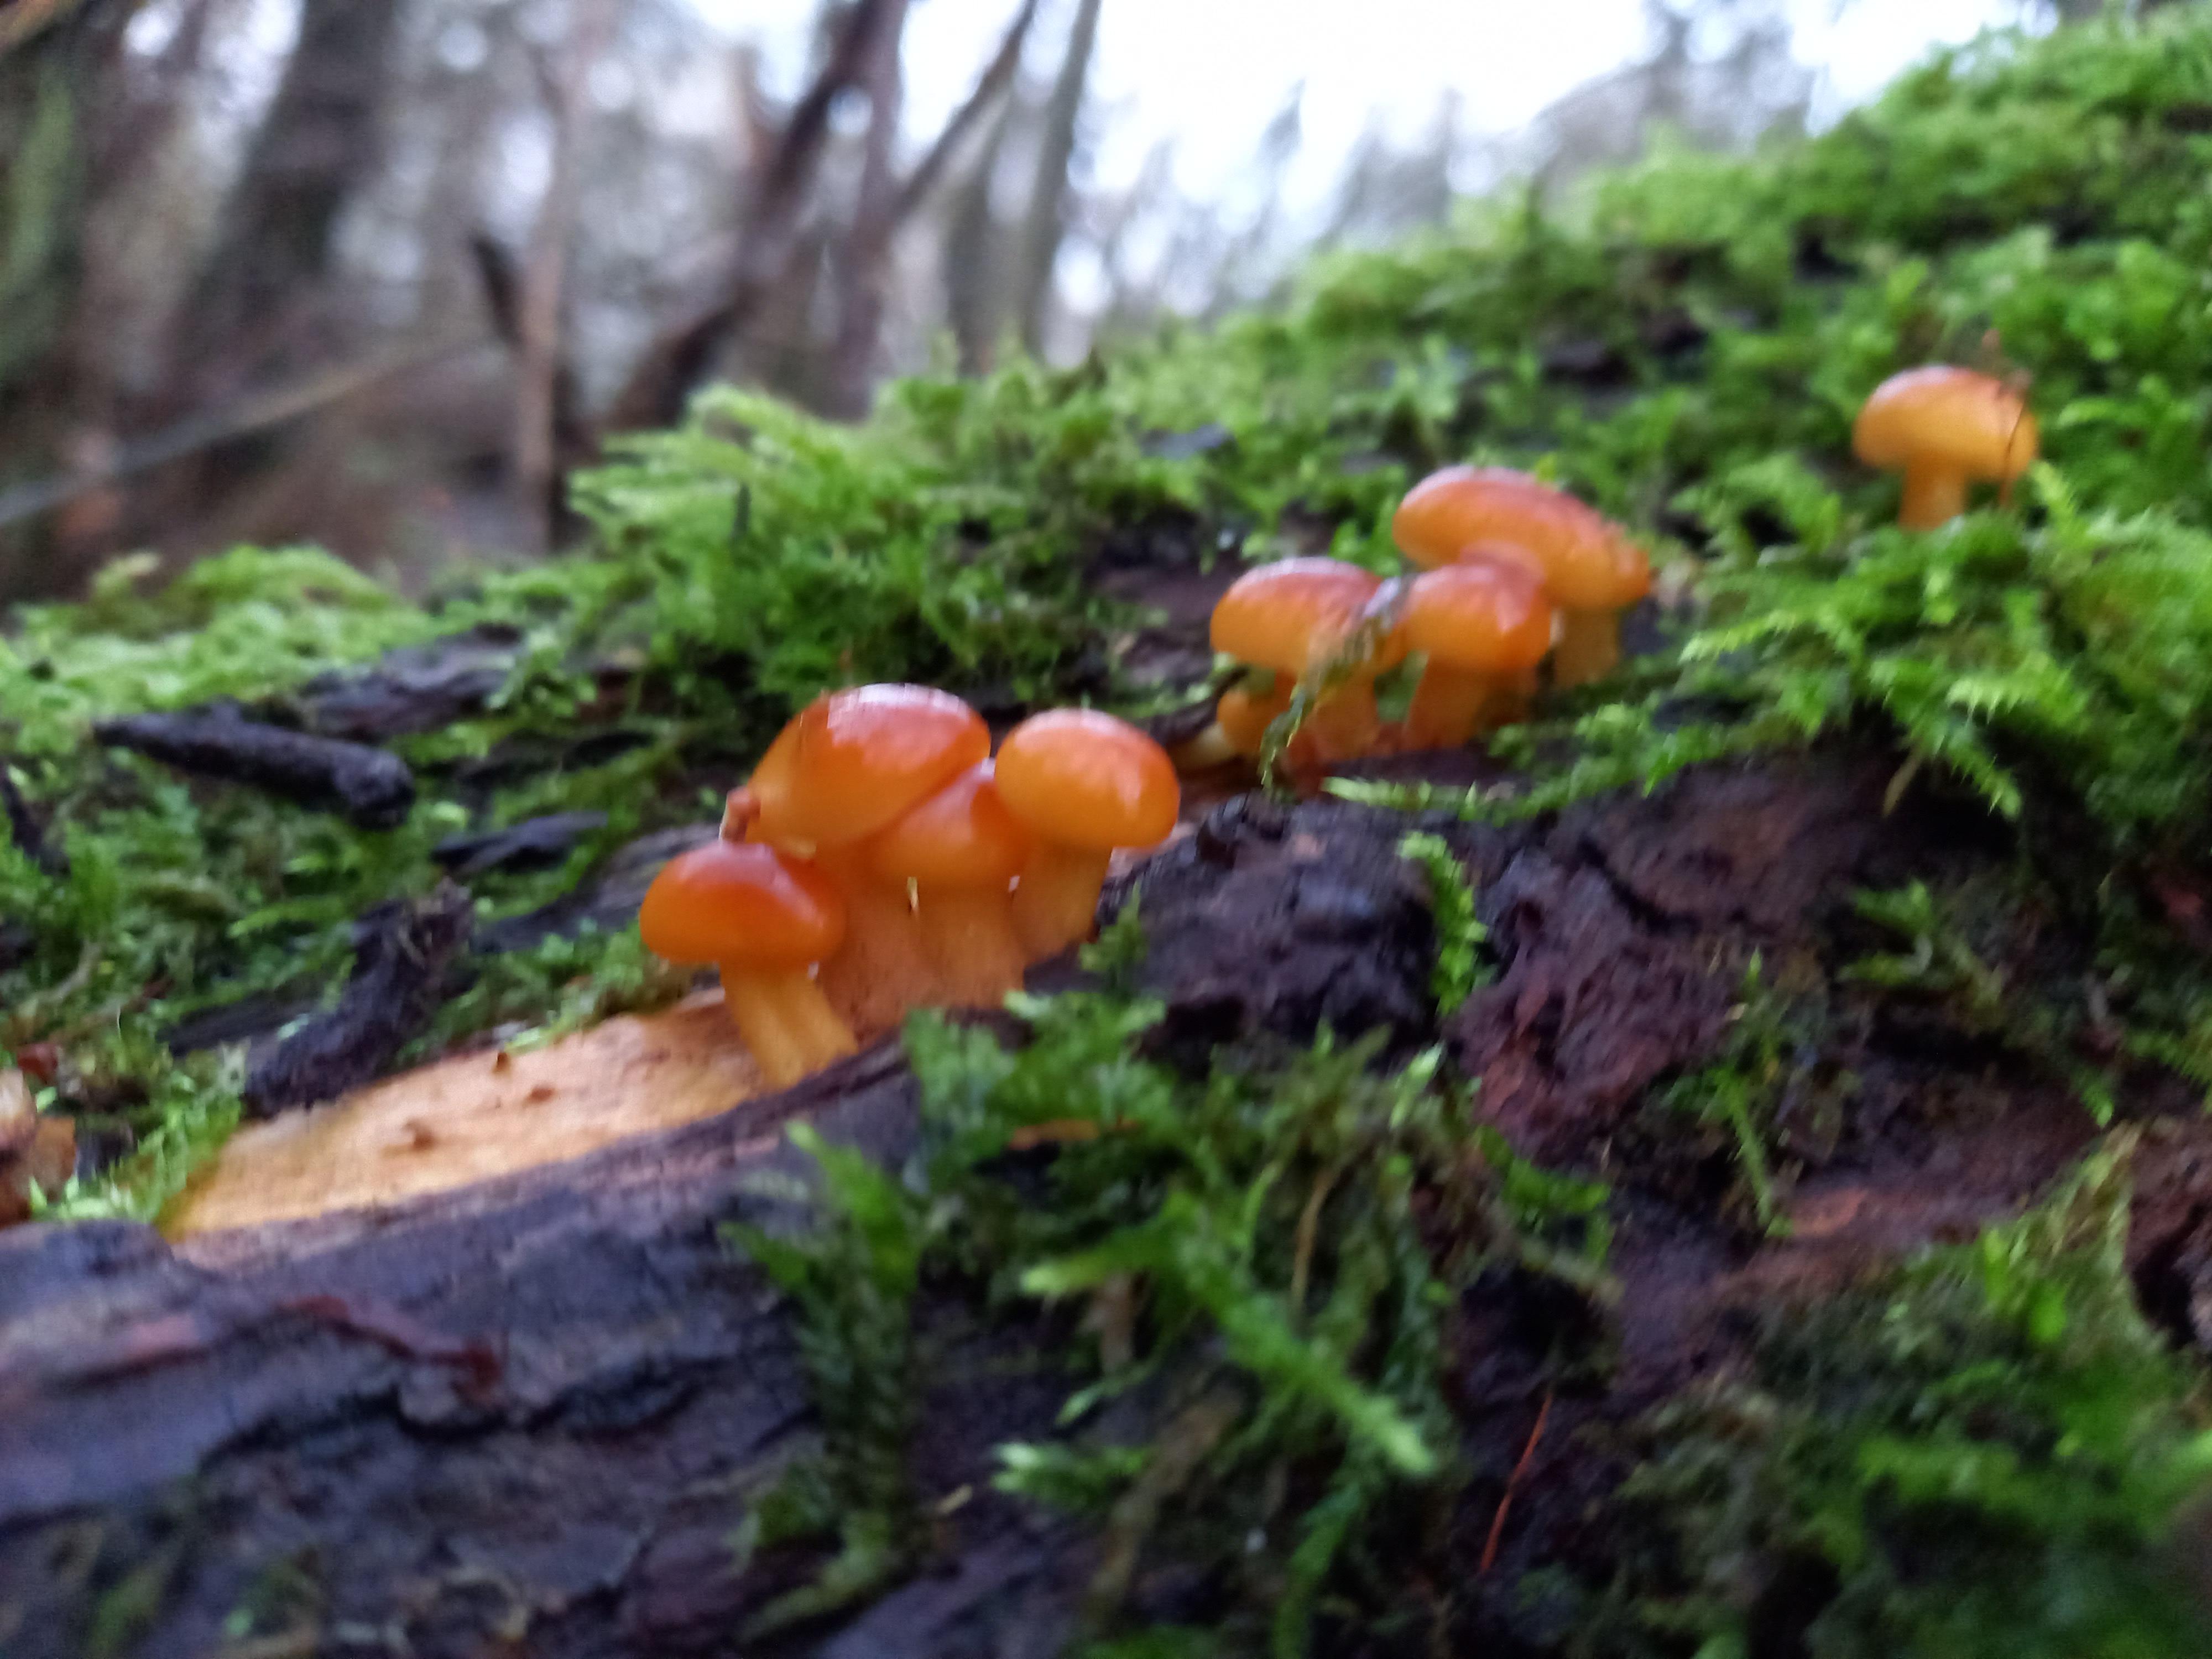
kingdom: Fungi
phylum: Basidiomycota
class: Agaricomycetes
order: Agaricales
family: Physalacriaceae
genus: Flammulina
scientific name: Flammulina
